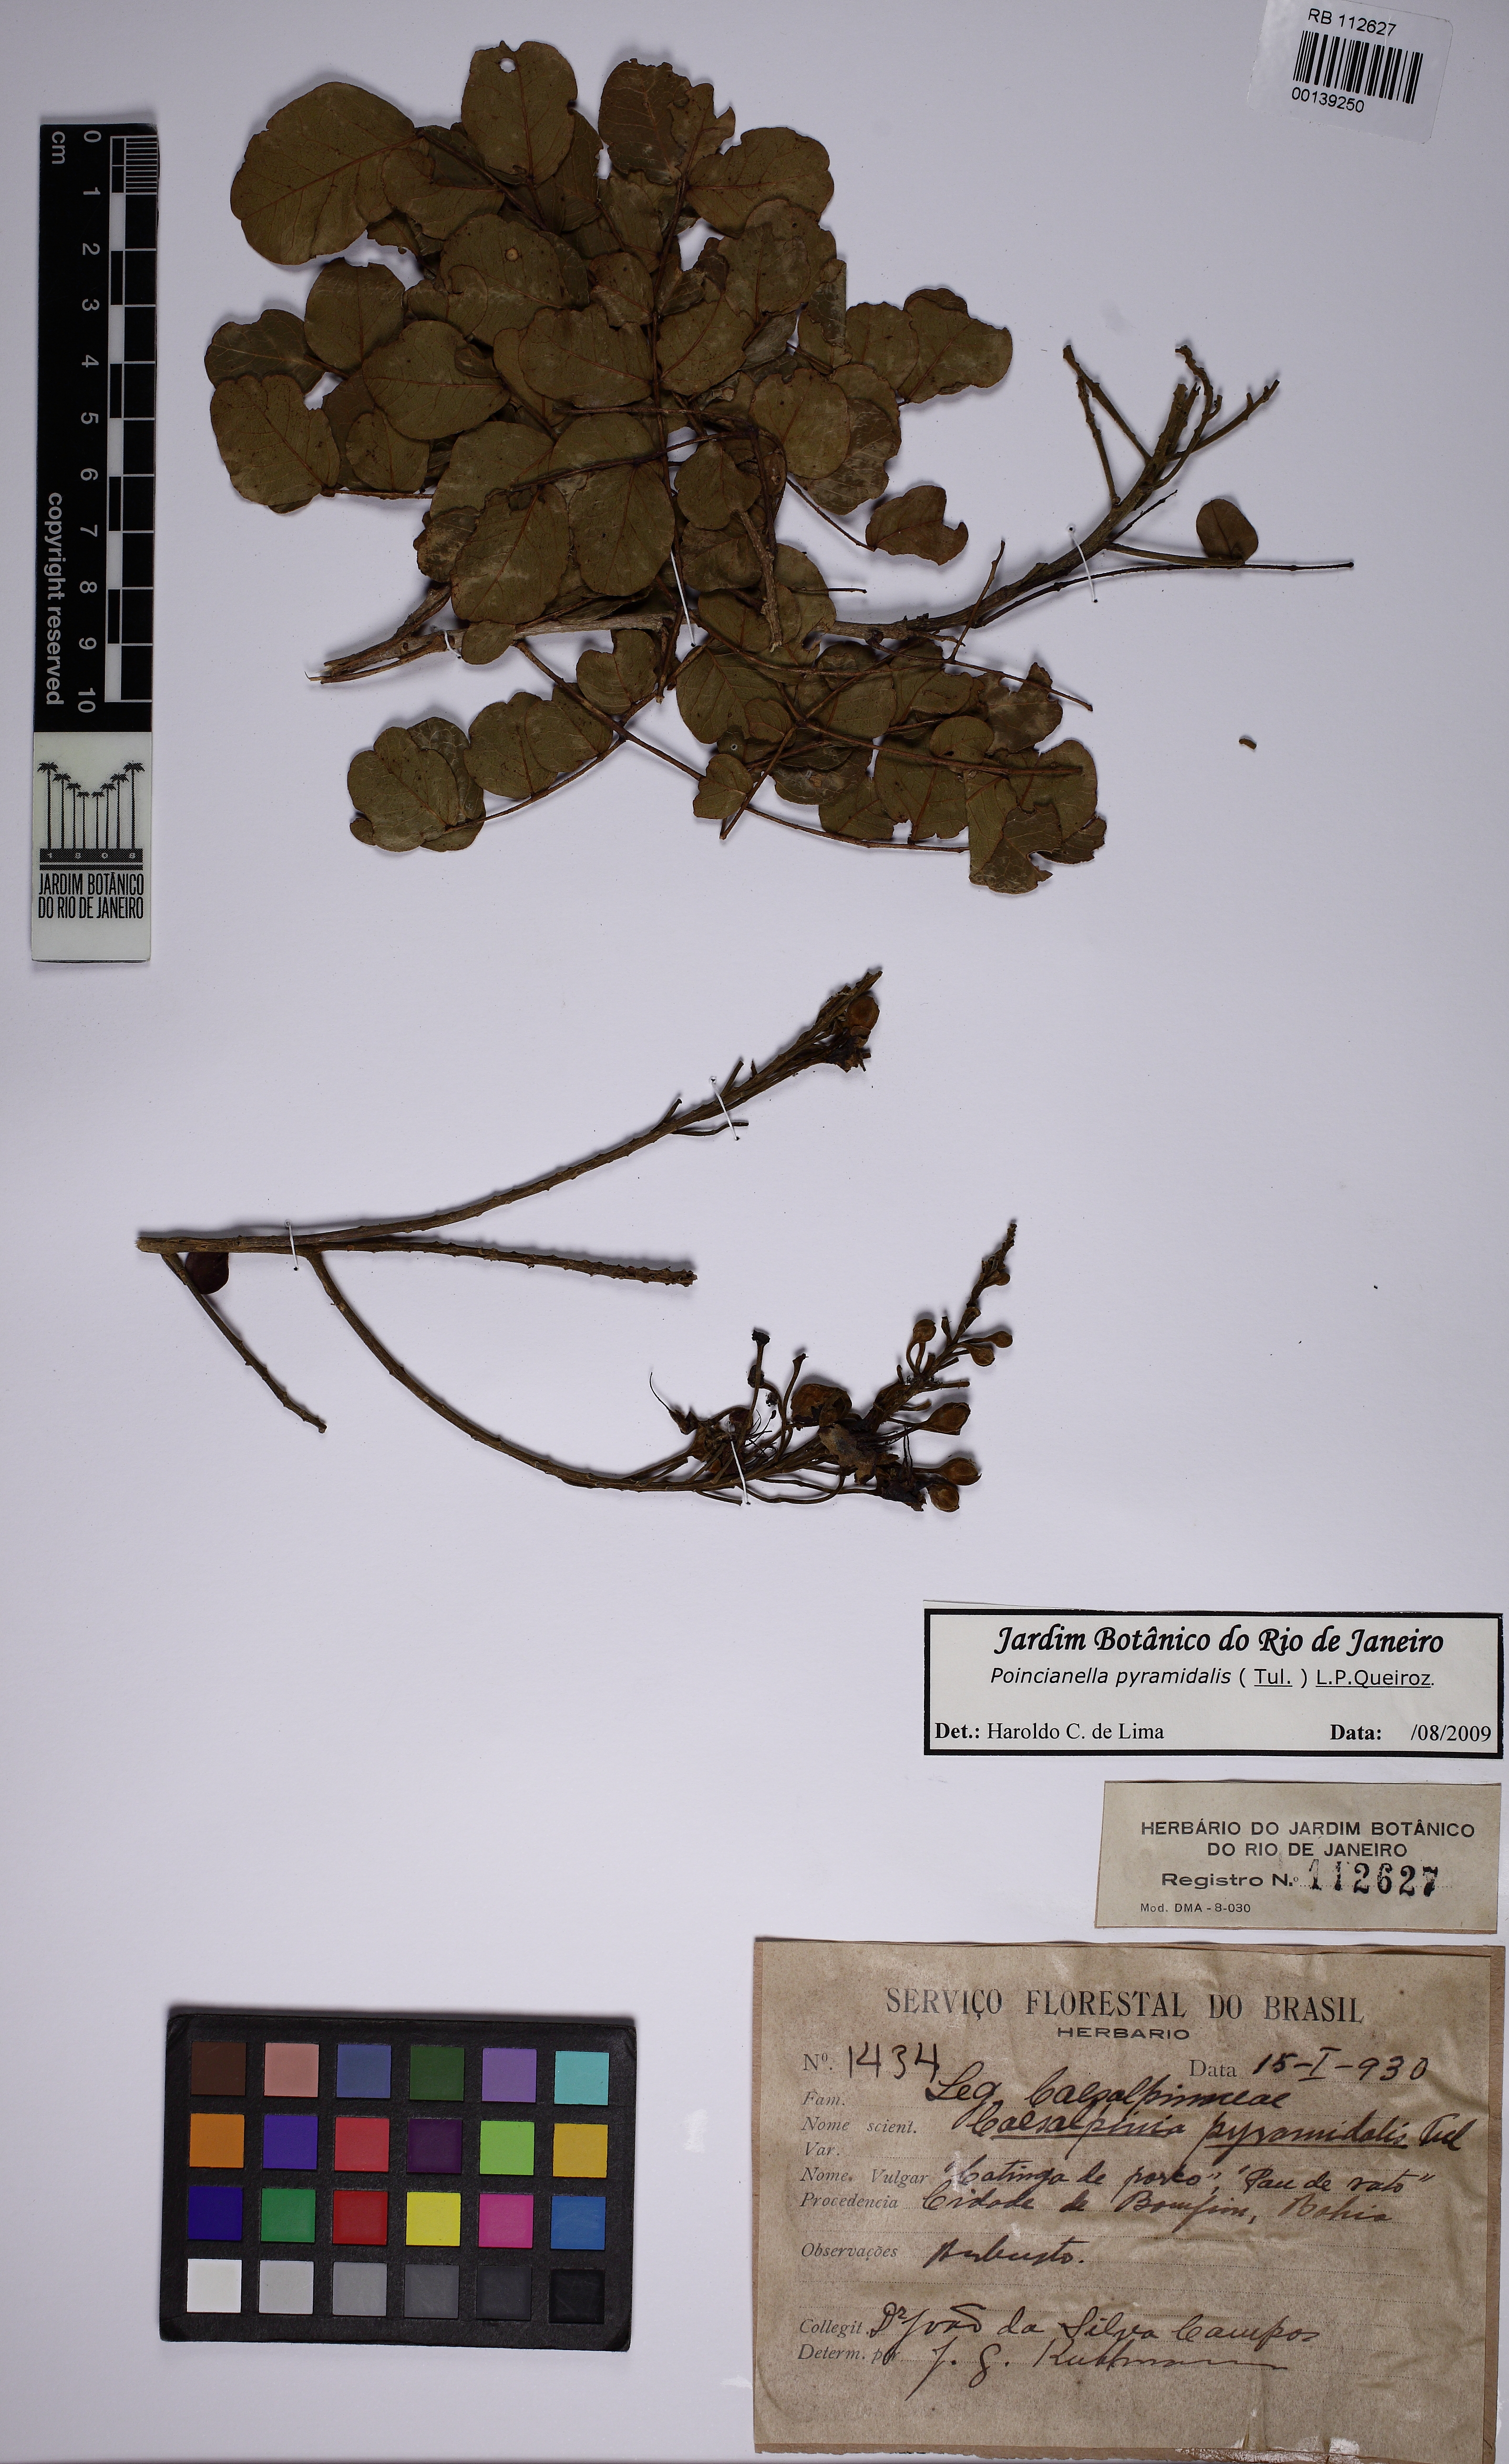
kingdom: Plantae
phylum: Tracheophyta
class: Magnoliopsida
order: Fabales
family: Fabaceae
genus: Cenostigma
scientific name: Cenostigma pyramidale
